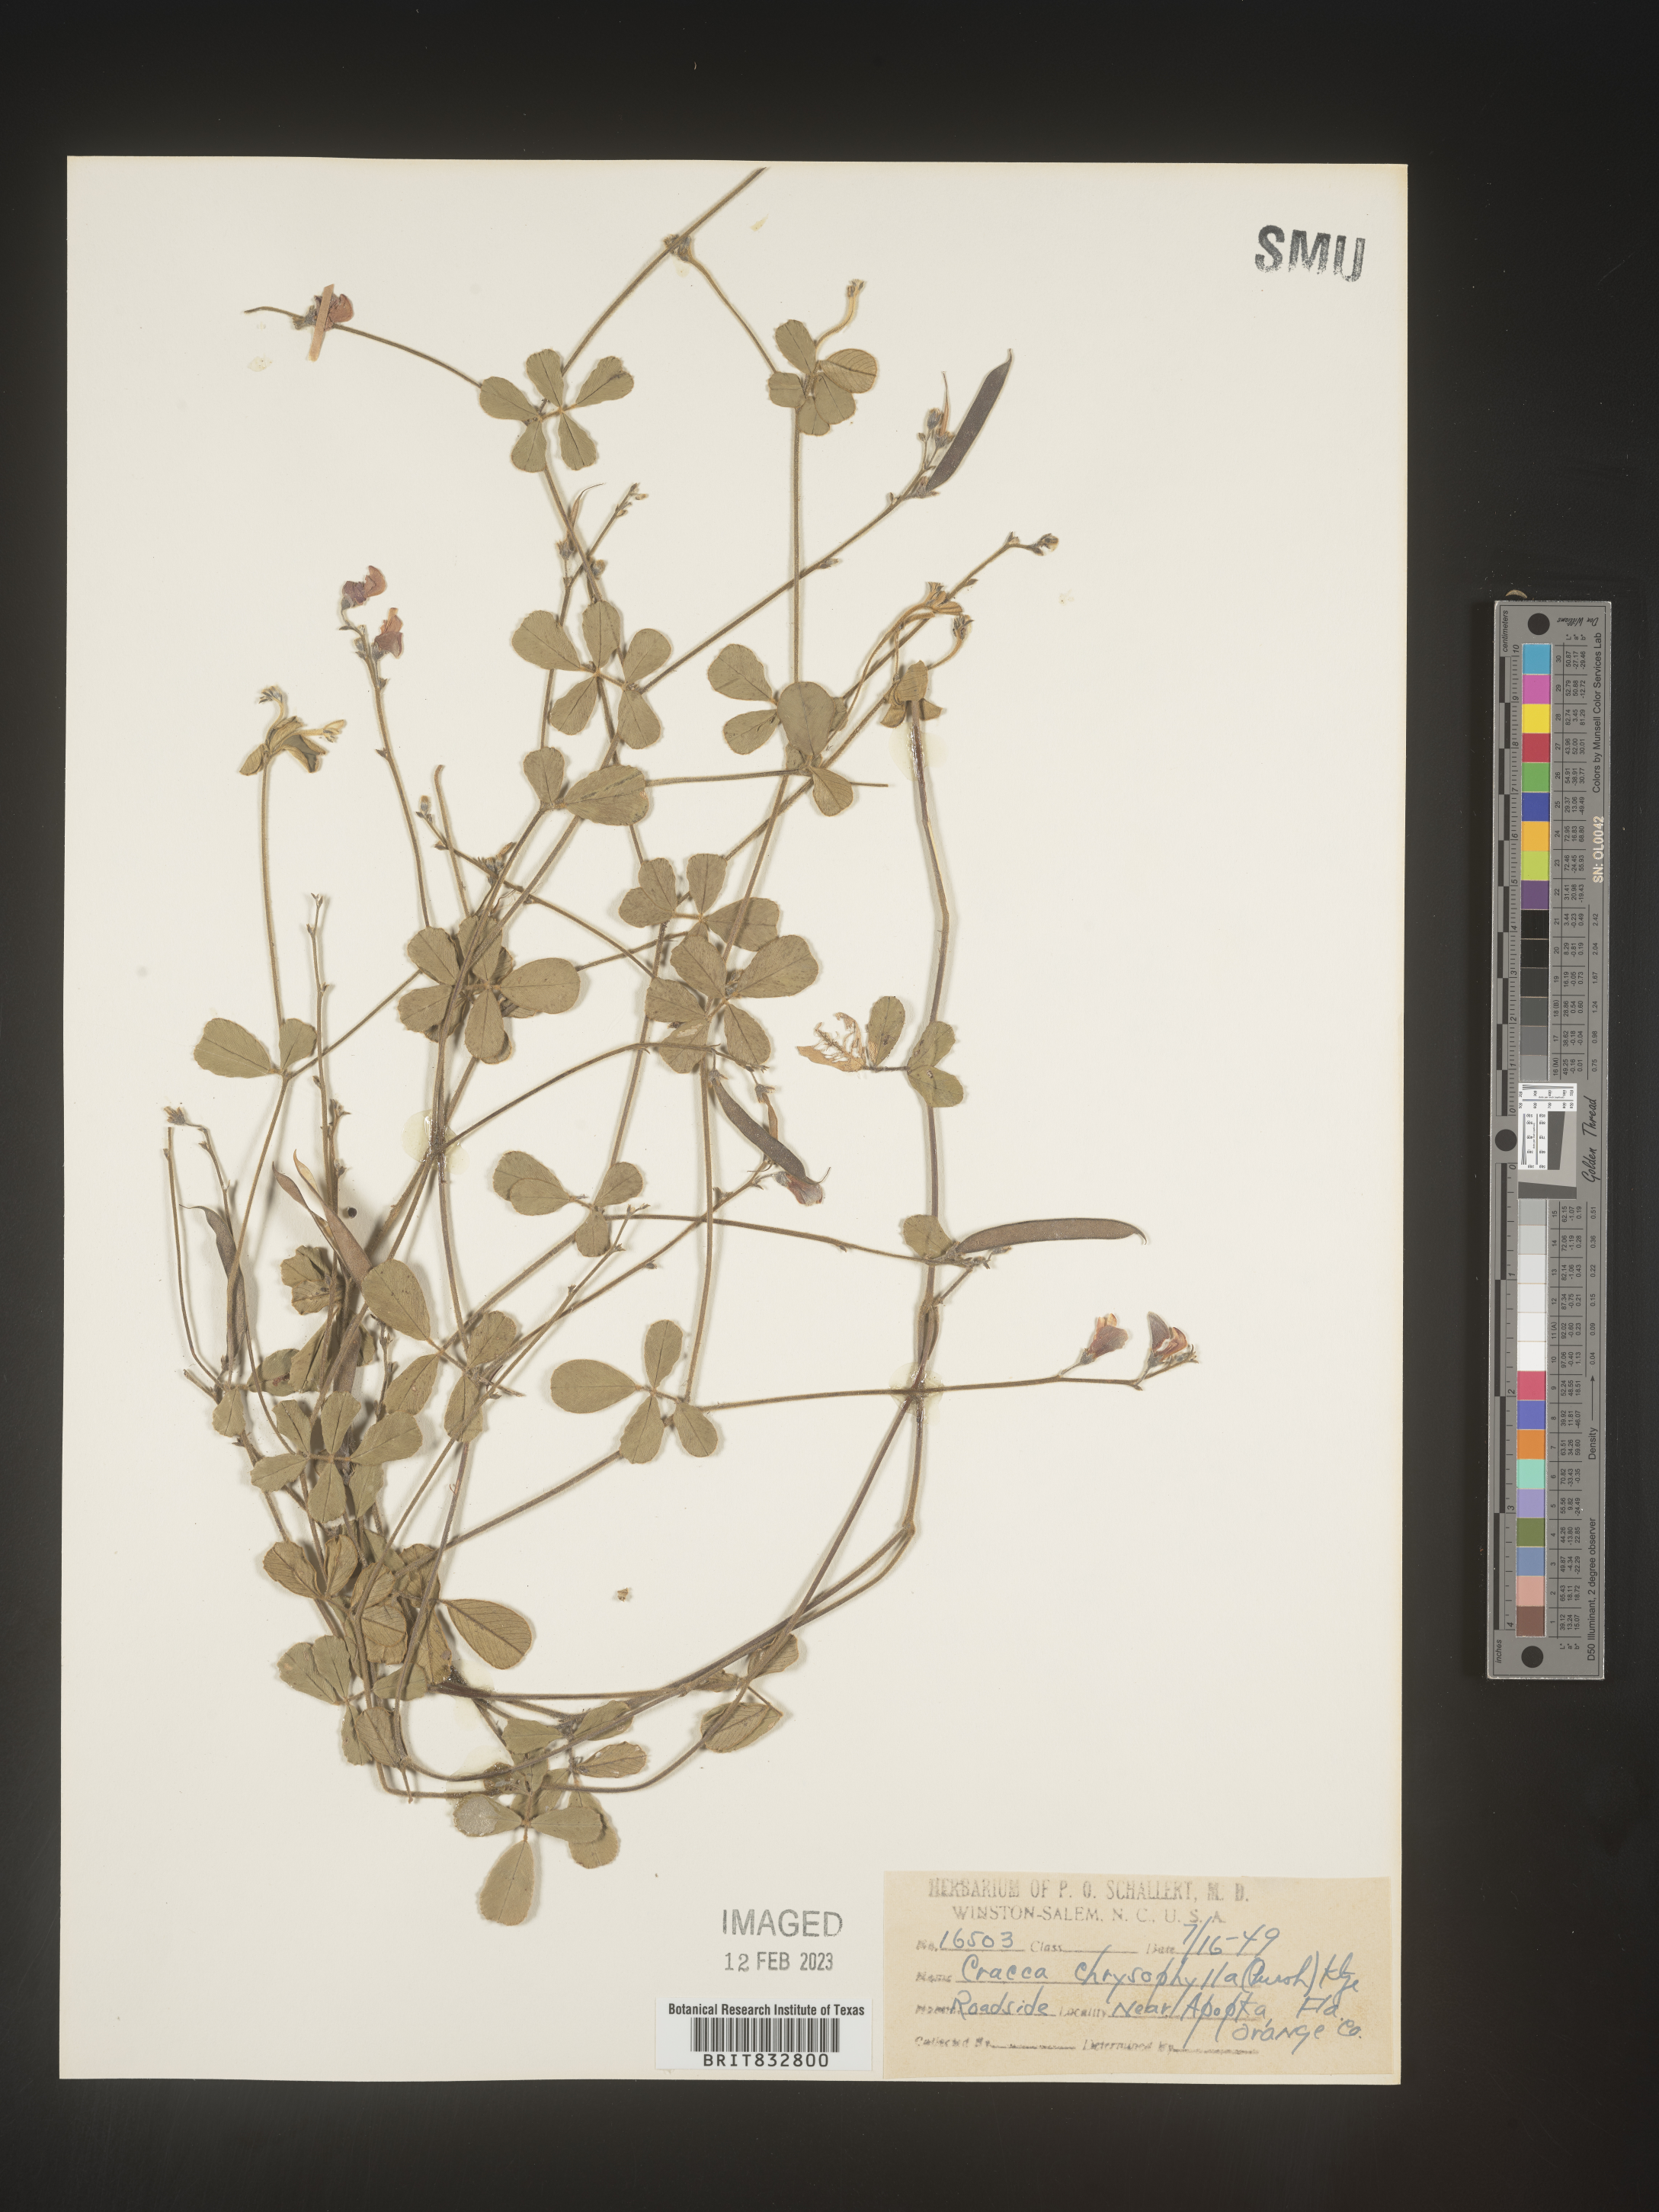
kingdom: Plantae
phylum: Tracheophyta
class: Magnoliopsida
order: Fabales
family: Fabaceae
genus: Tephrosia
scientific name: Tephrosia chrysophylla
